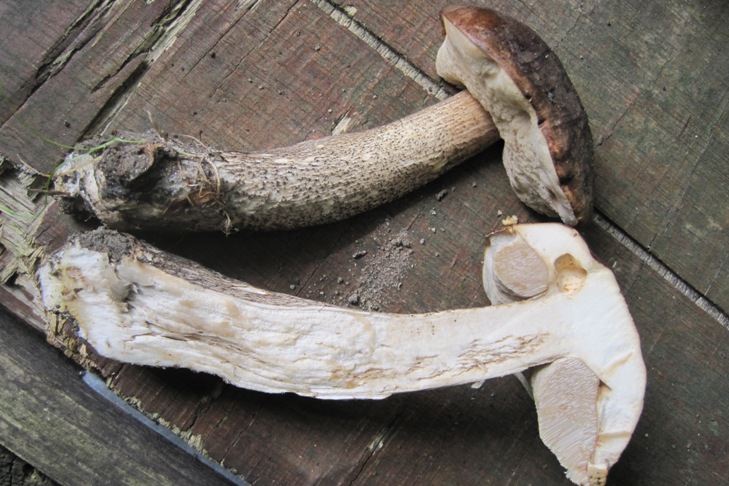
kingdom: Fungi
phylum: Basidiomycota
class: Agaricomycetes
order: Boletales
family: Boletaceae
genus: Leccinum
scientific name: Leccinum scabrum
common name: brun skælrørhat
